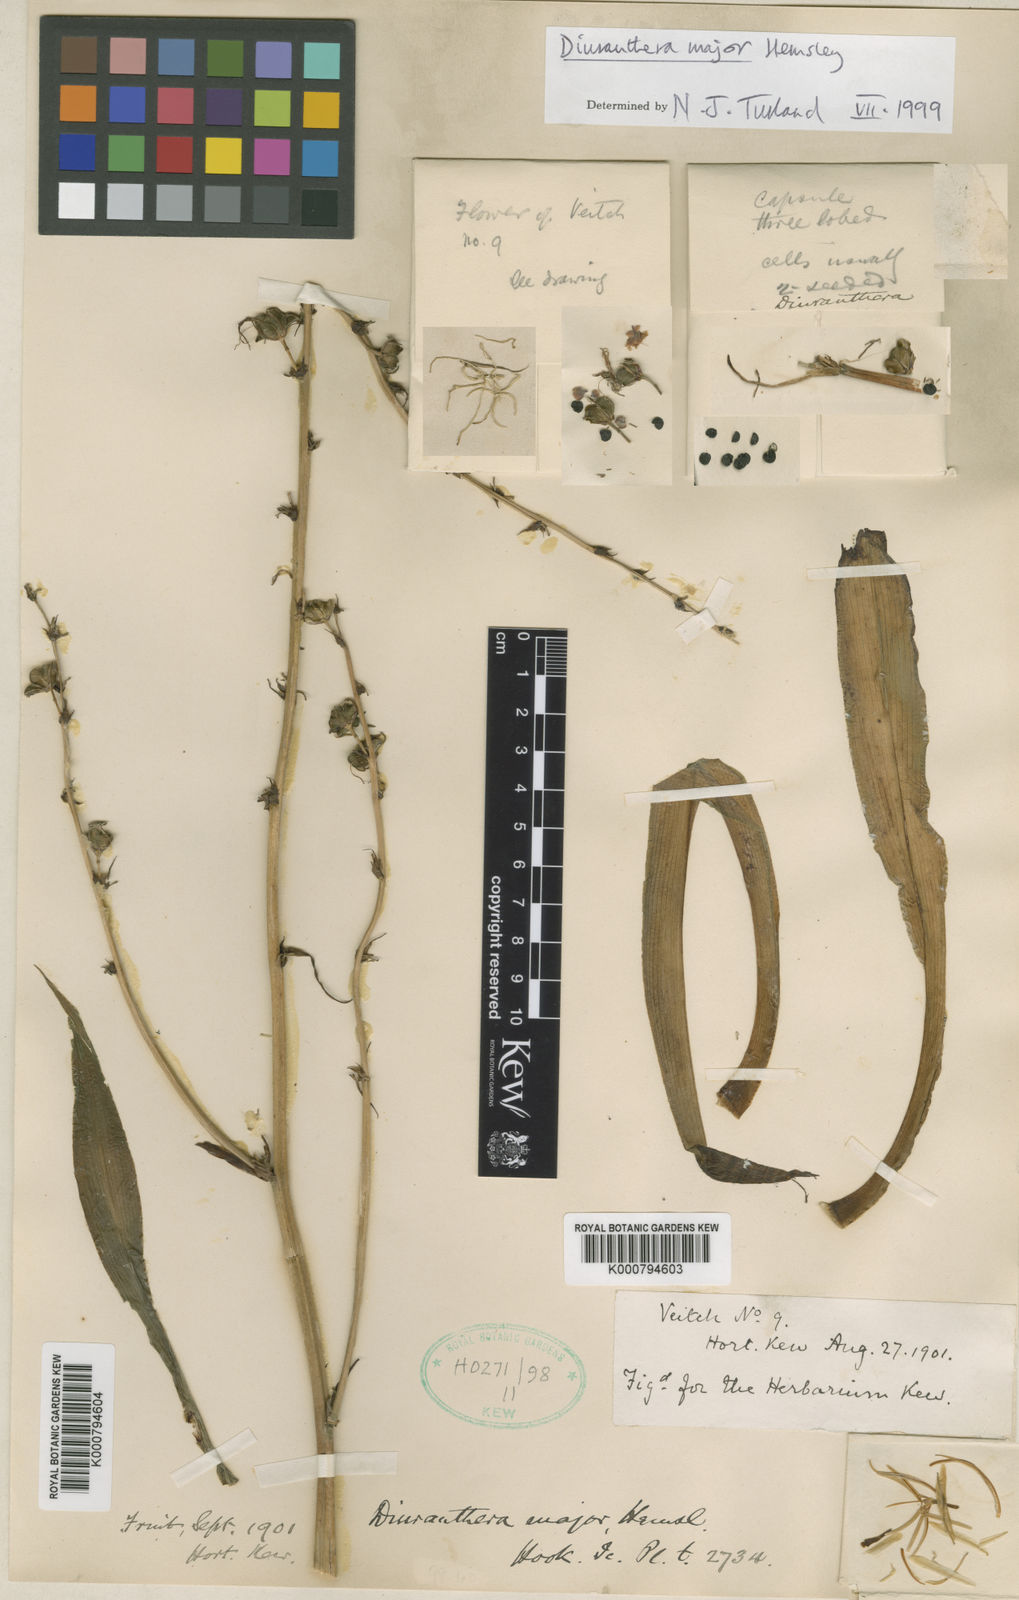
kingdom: Plantae
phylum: Tracheophyta
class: Liliopsida
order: Asparagales
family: Asparagaceae
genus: Chlorophytum
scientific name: Chlorophytum
